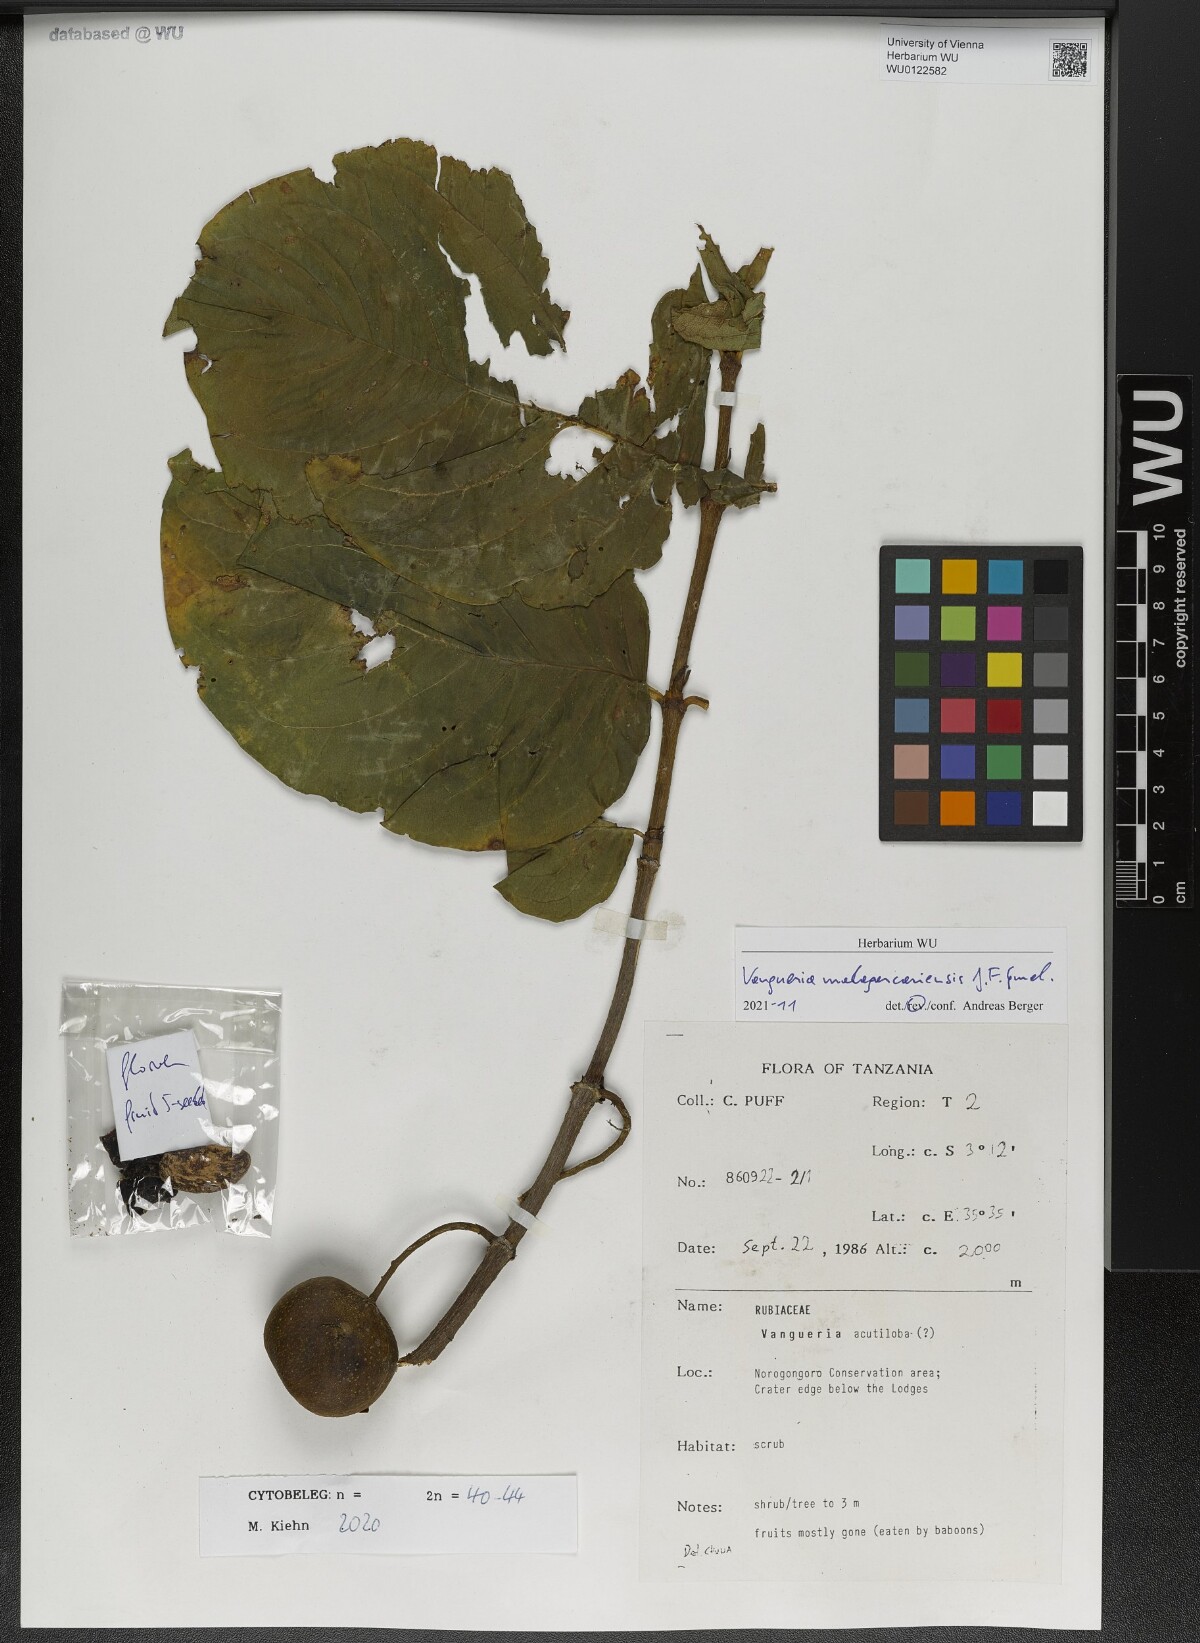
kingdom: Plantae
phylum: Tracheophyta
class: Magnoliopsida
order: Gentianales
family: Rubiaceae
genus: Vangueria
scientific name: Vangueria madagascariensis
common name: Smooth wild-medlar
